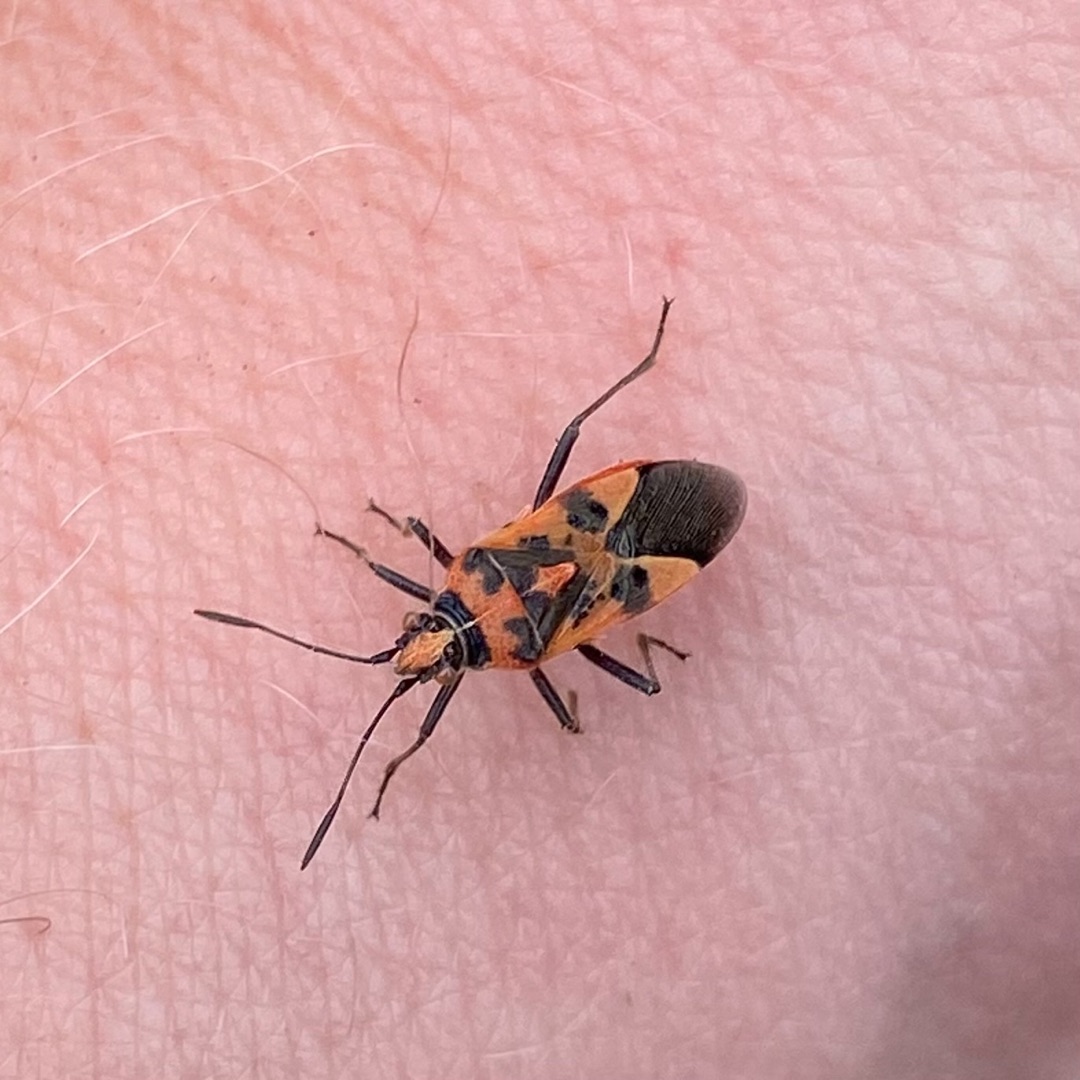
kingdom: Animalia
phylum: Arthropoda
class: Insecta
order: Hemiptera
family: Rhopalidae
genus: Corizus
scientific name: Corizus hyoscyami
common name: Rød kanttæge
